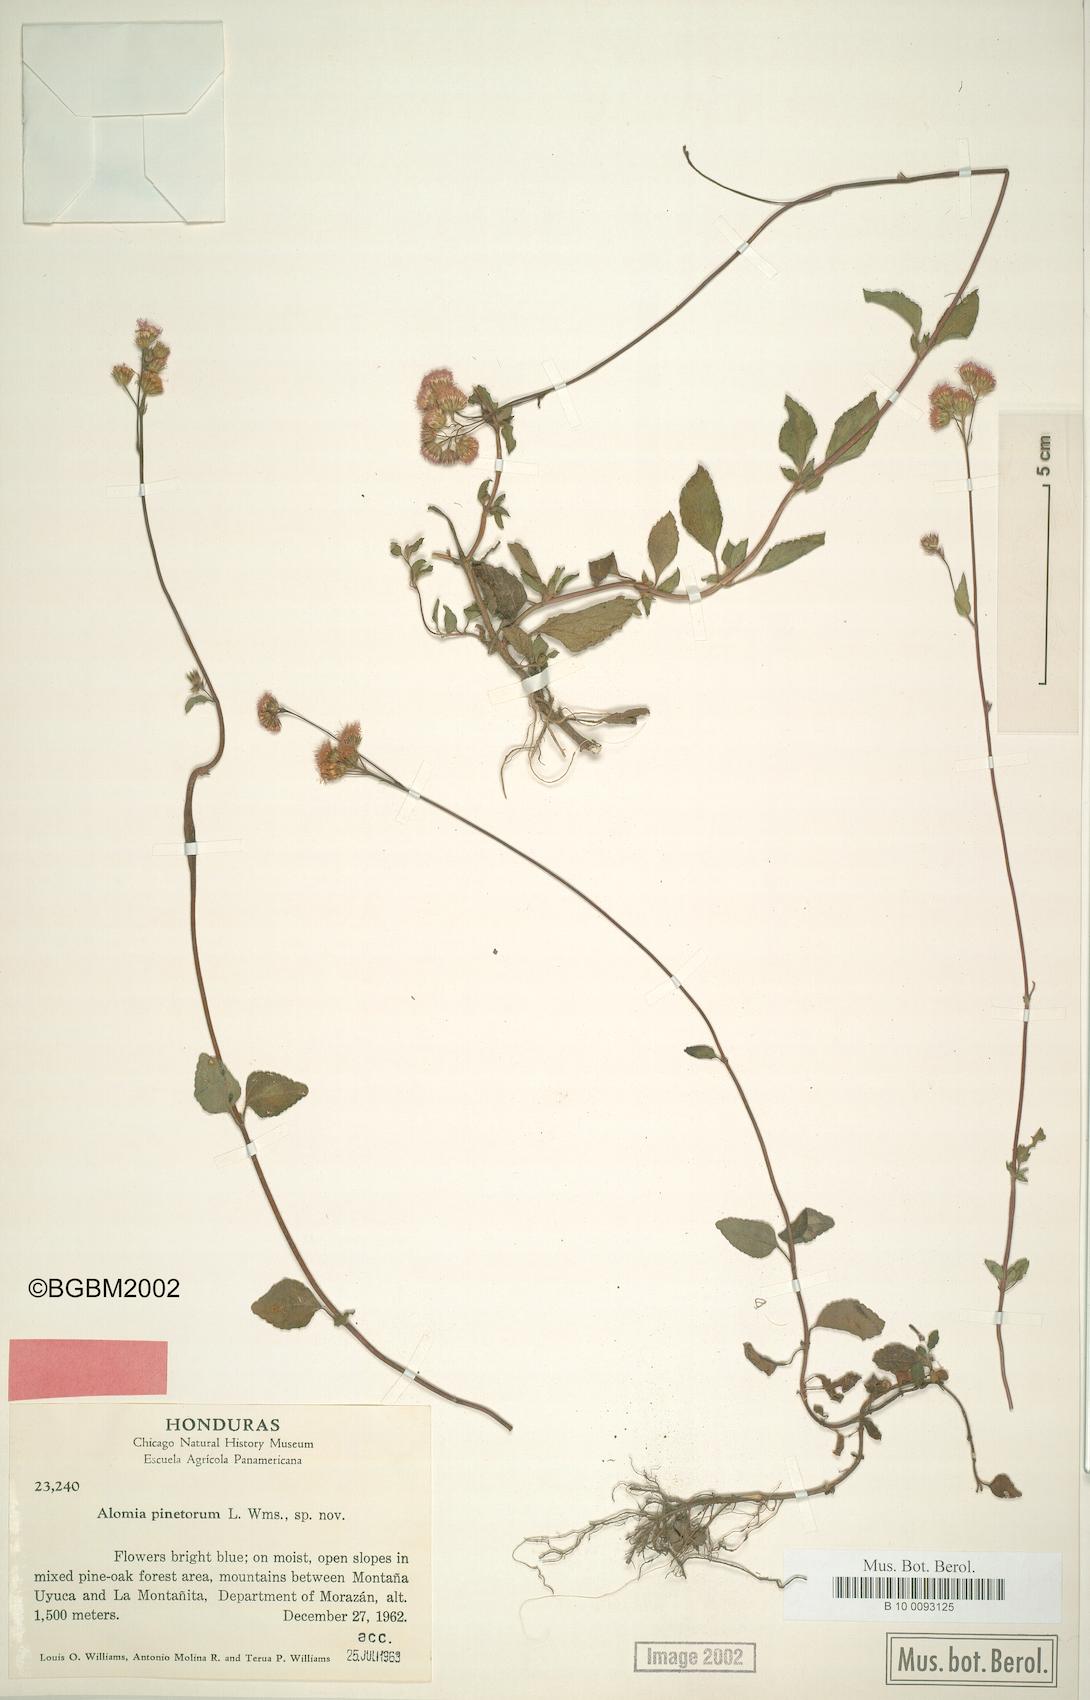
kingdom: Plantae
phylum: Tracheophyta
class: Magnoliopsida
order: Asterales
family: Asteraceae
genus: Ageratum
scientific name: Ageratum houstonianum
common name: Bluemink
